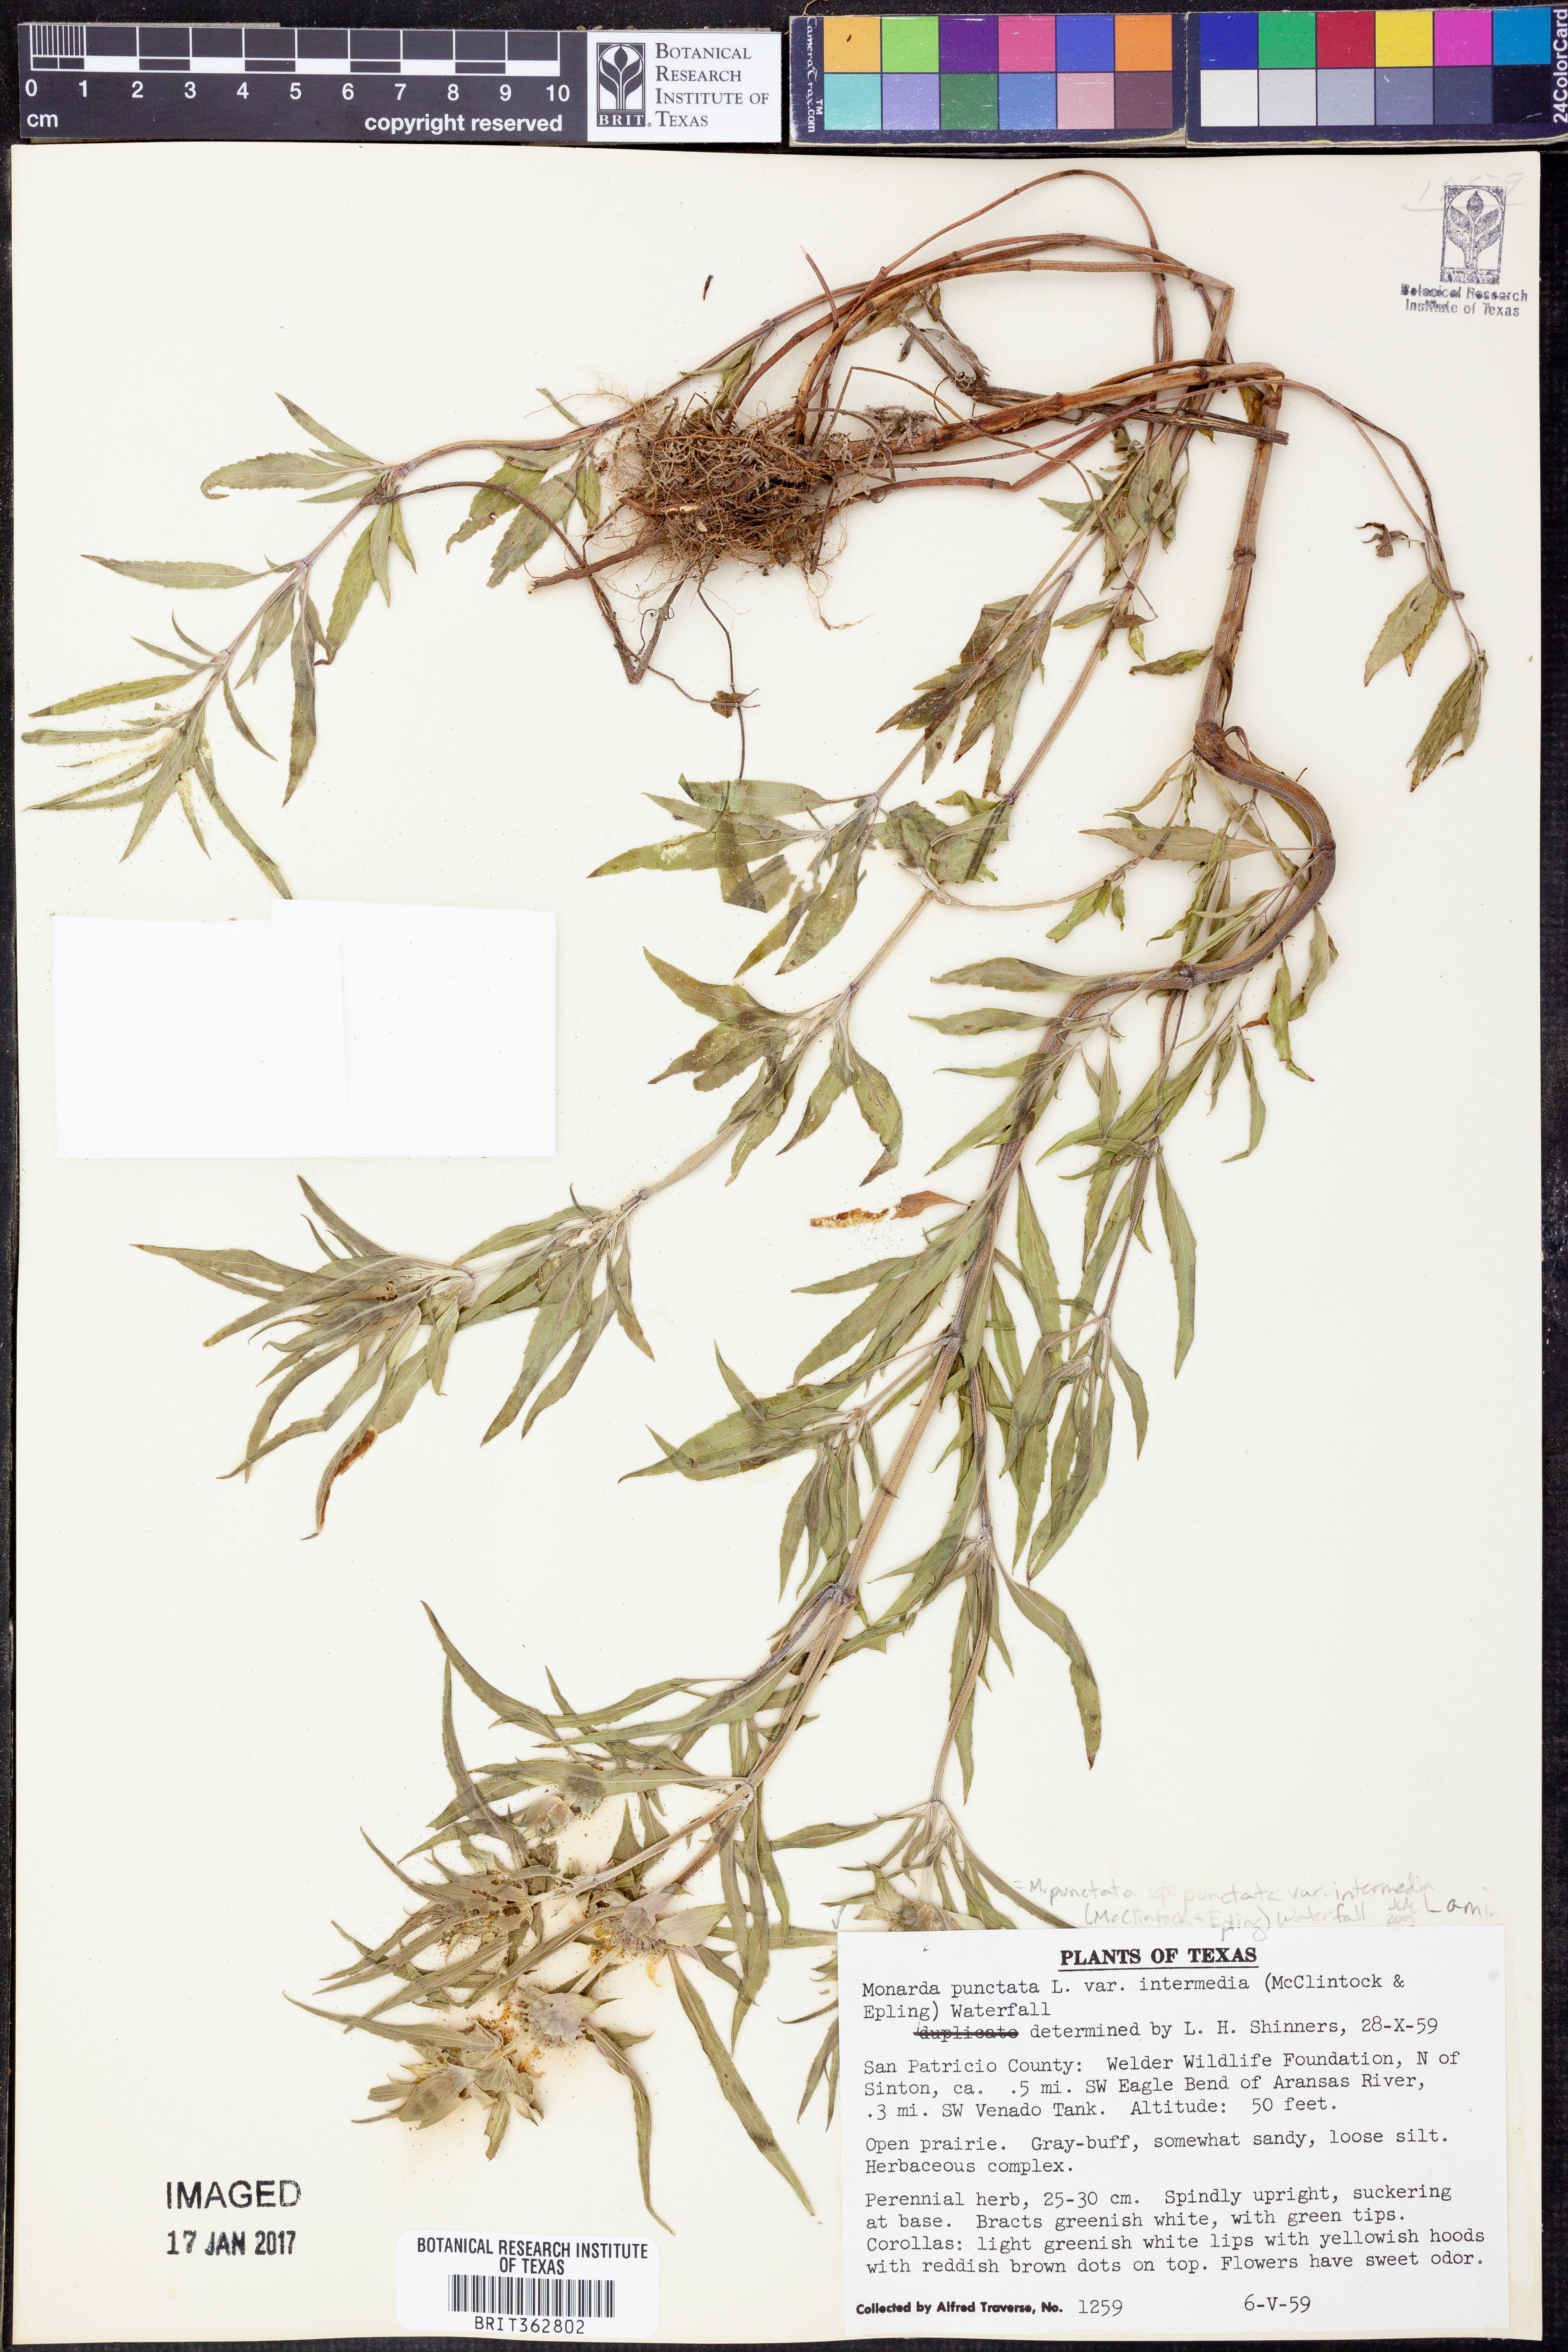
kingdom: Plantae
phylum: Tracheophyta
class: Magnoliopsida
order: Lamiales
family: Lamiaceae
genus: Monarda
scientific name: Monarda punctata
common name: Dotted monarda
